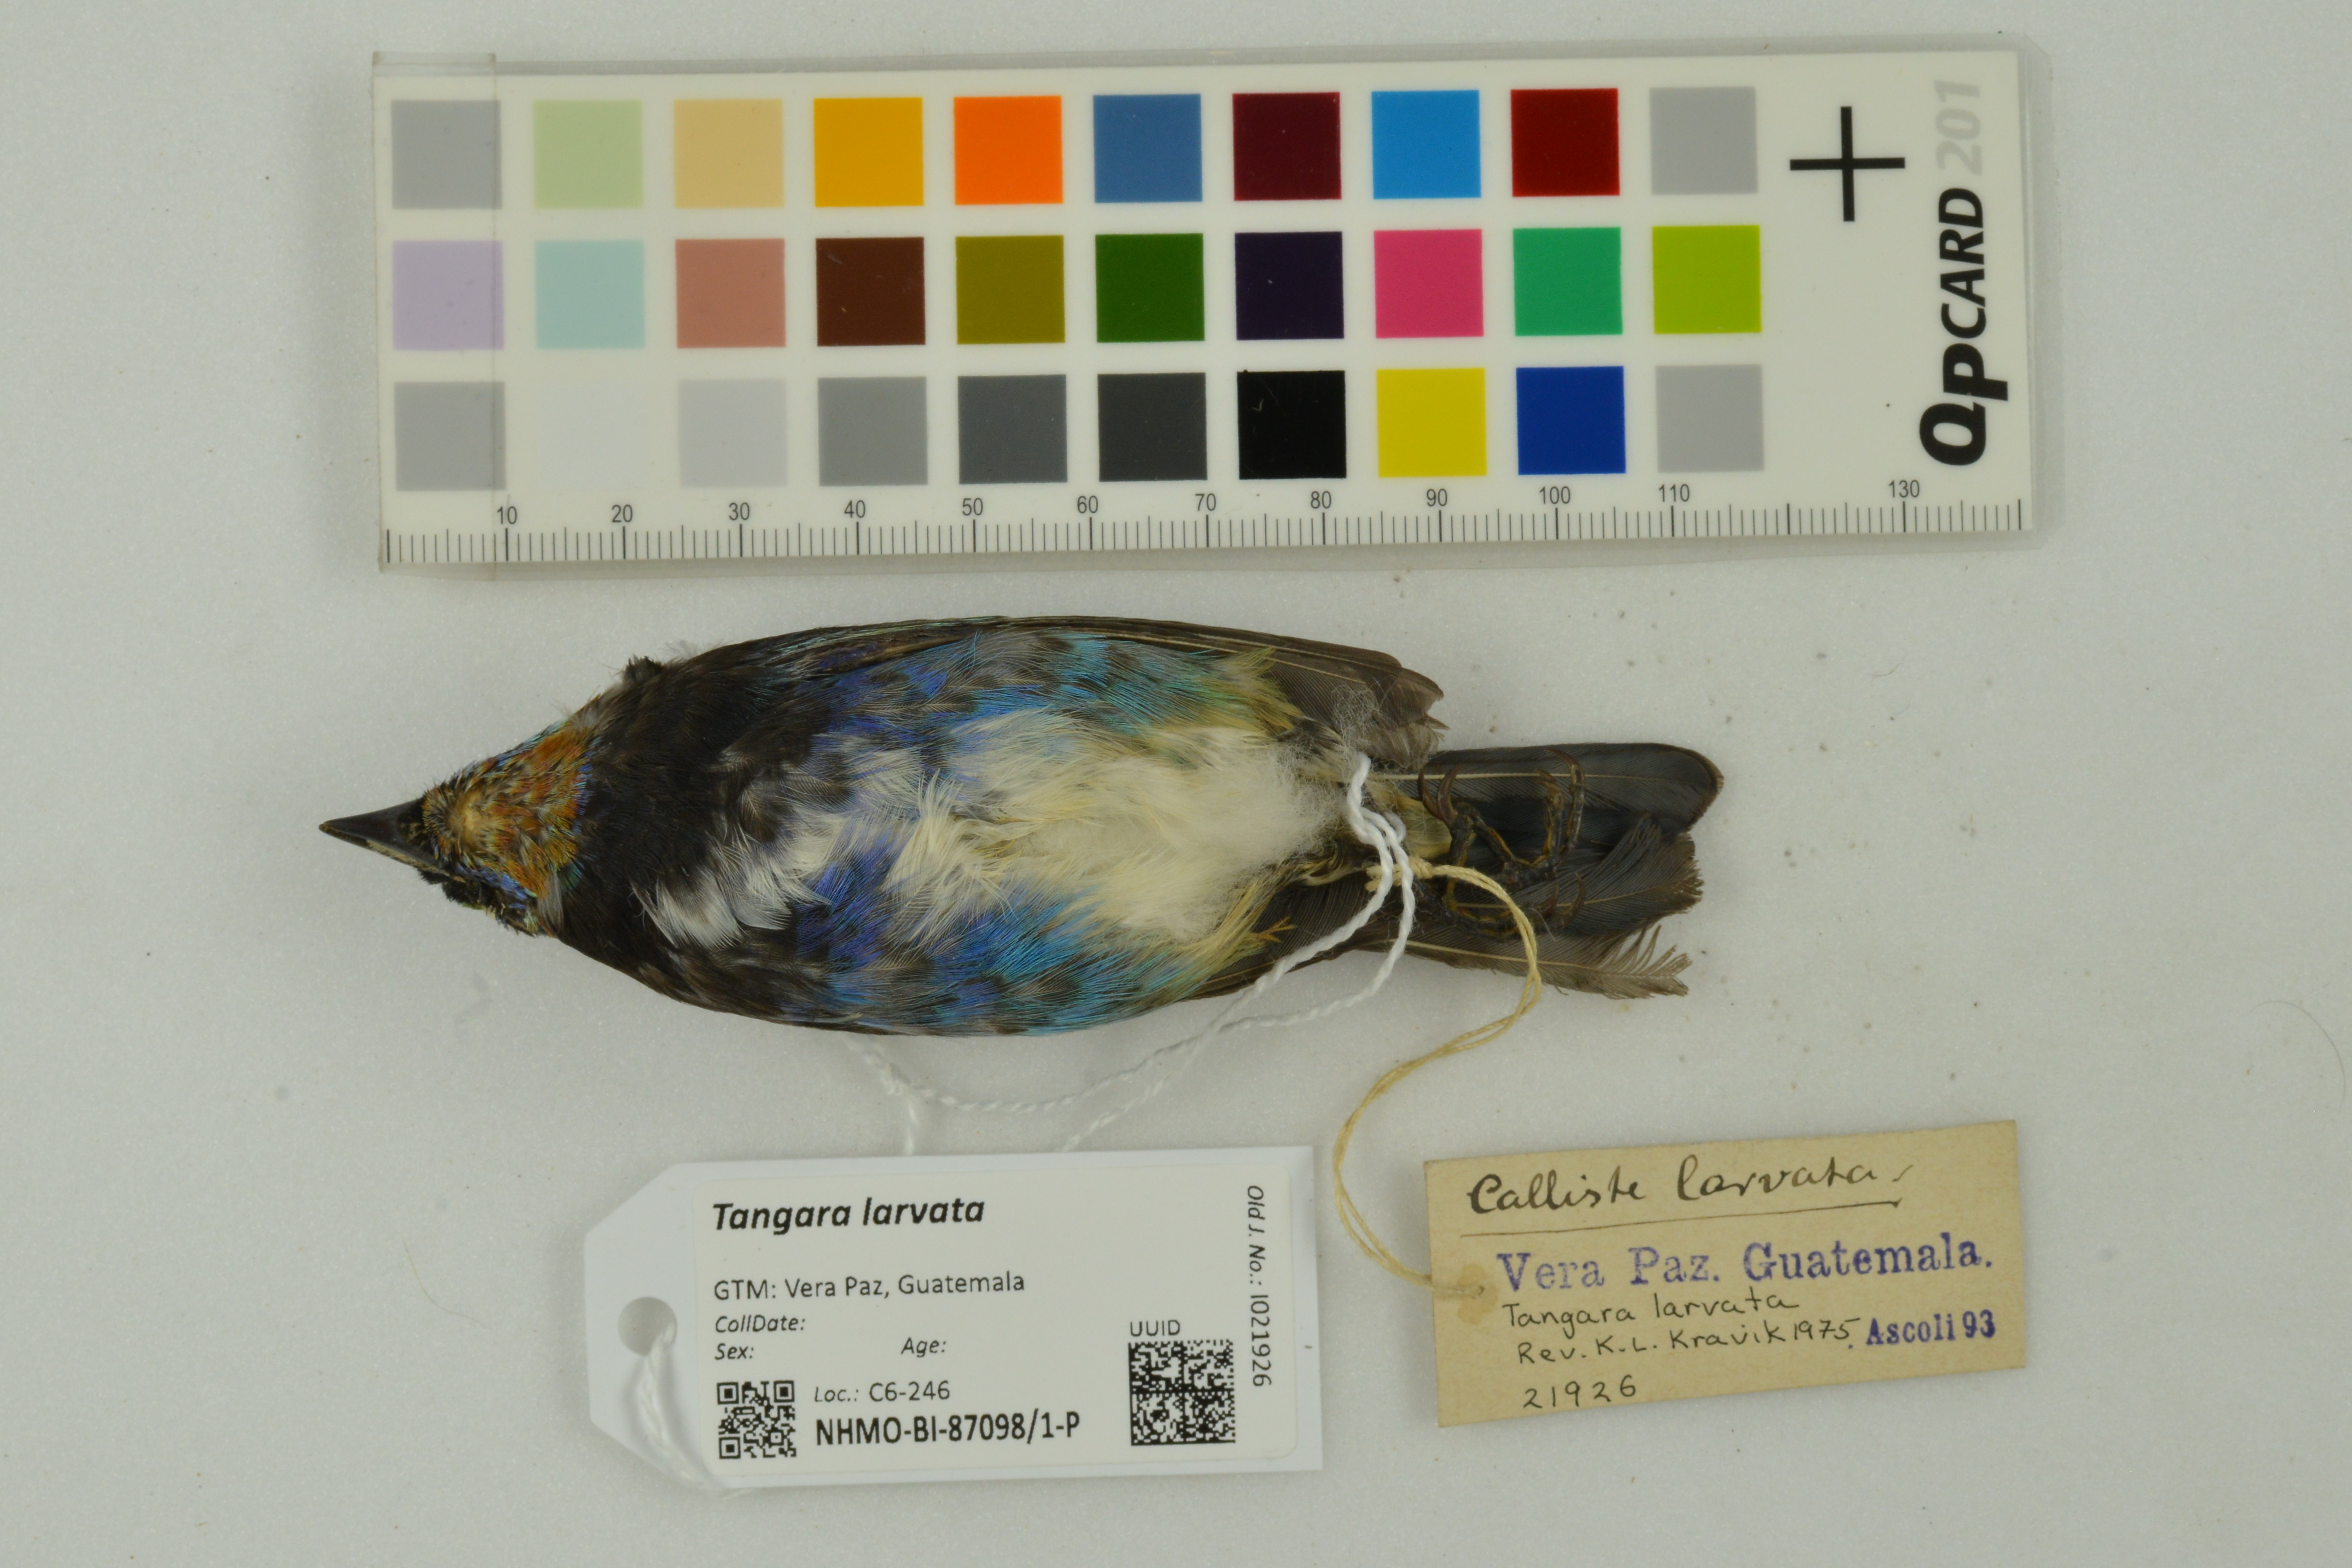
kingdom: Animalia
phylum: Chordata
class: Aves
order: Passeriformes
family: Thraupidae
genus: Stilpnia
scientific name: Stilpnia larvata
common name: Golden-hooded tanager
